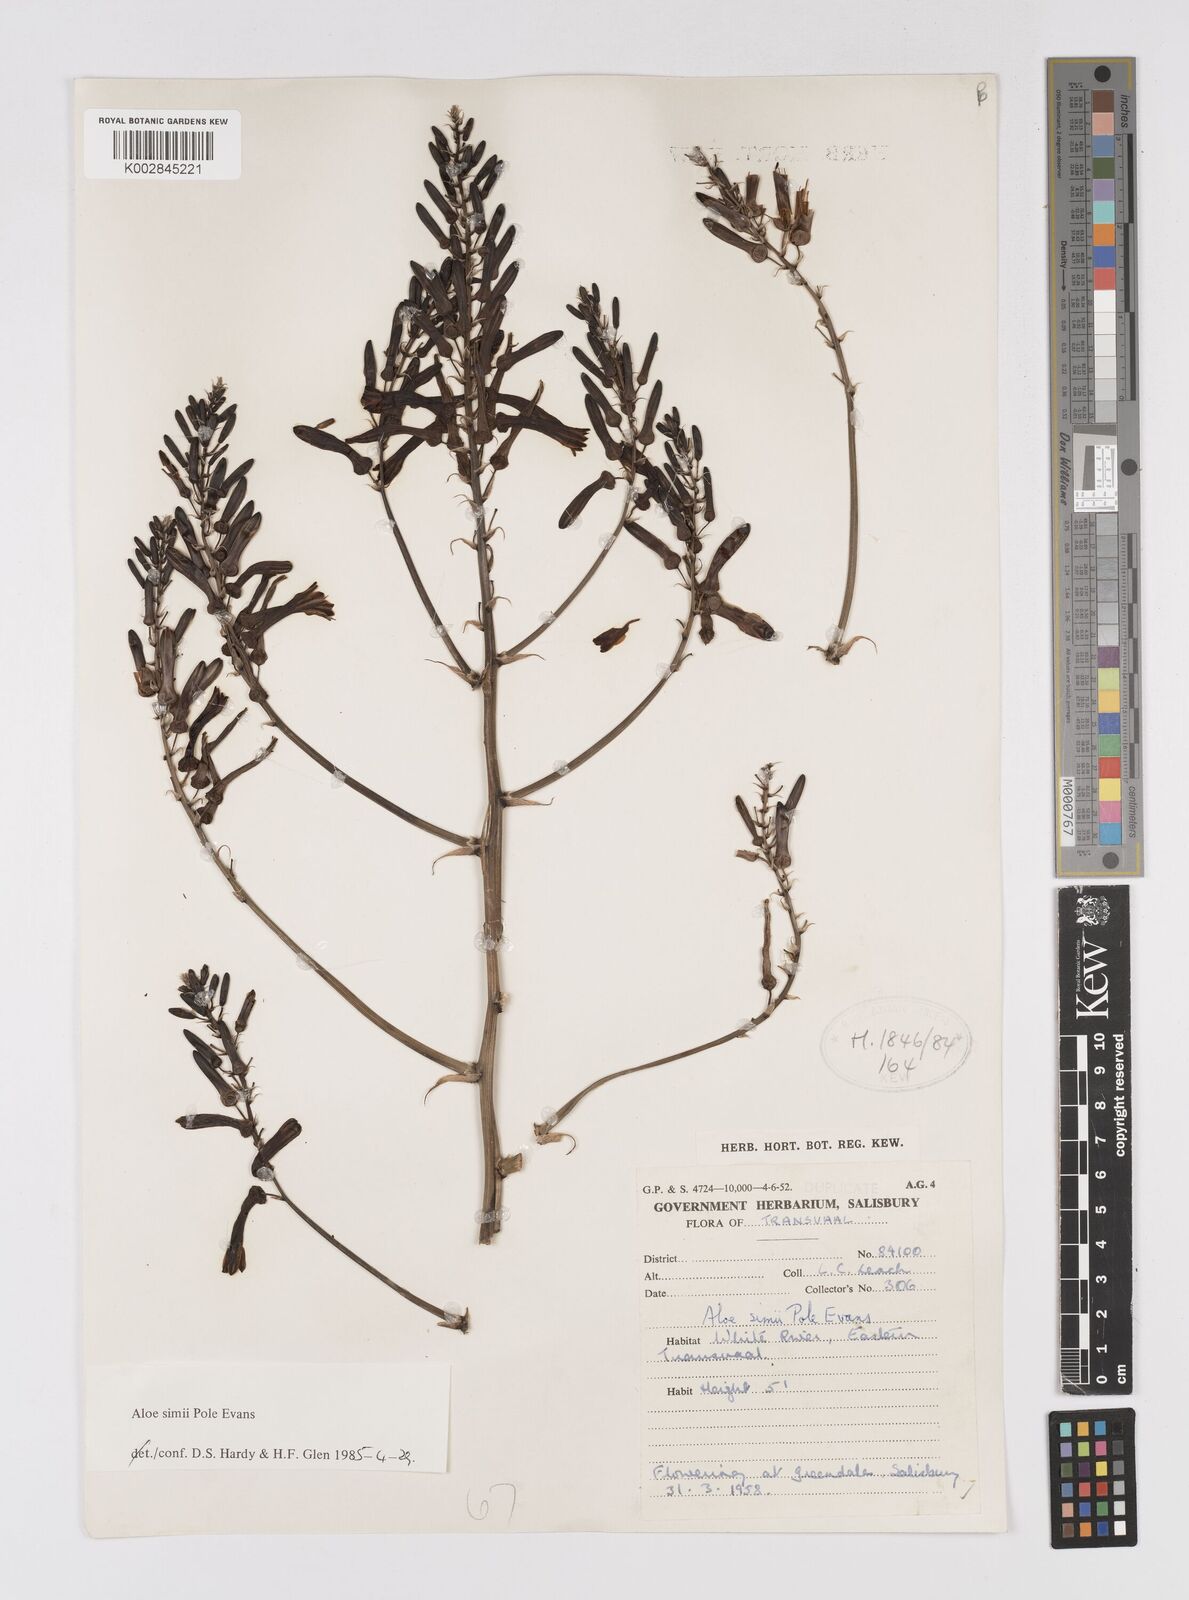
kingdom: Plantae
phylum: Tracheophyta
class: Liliopsida
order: Asparagales
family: Asphodelaceae
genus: Aloe
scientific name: Aloe simii
